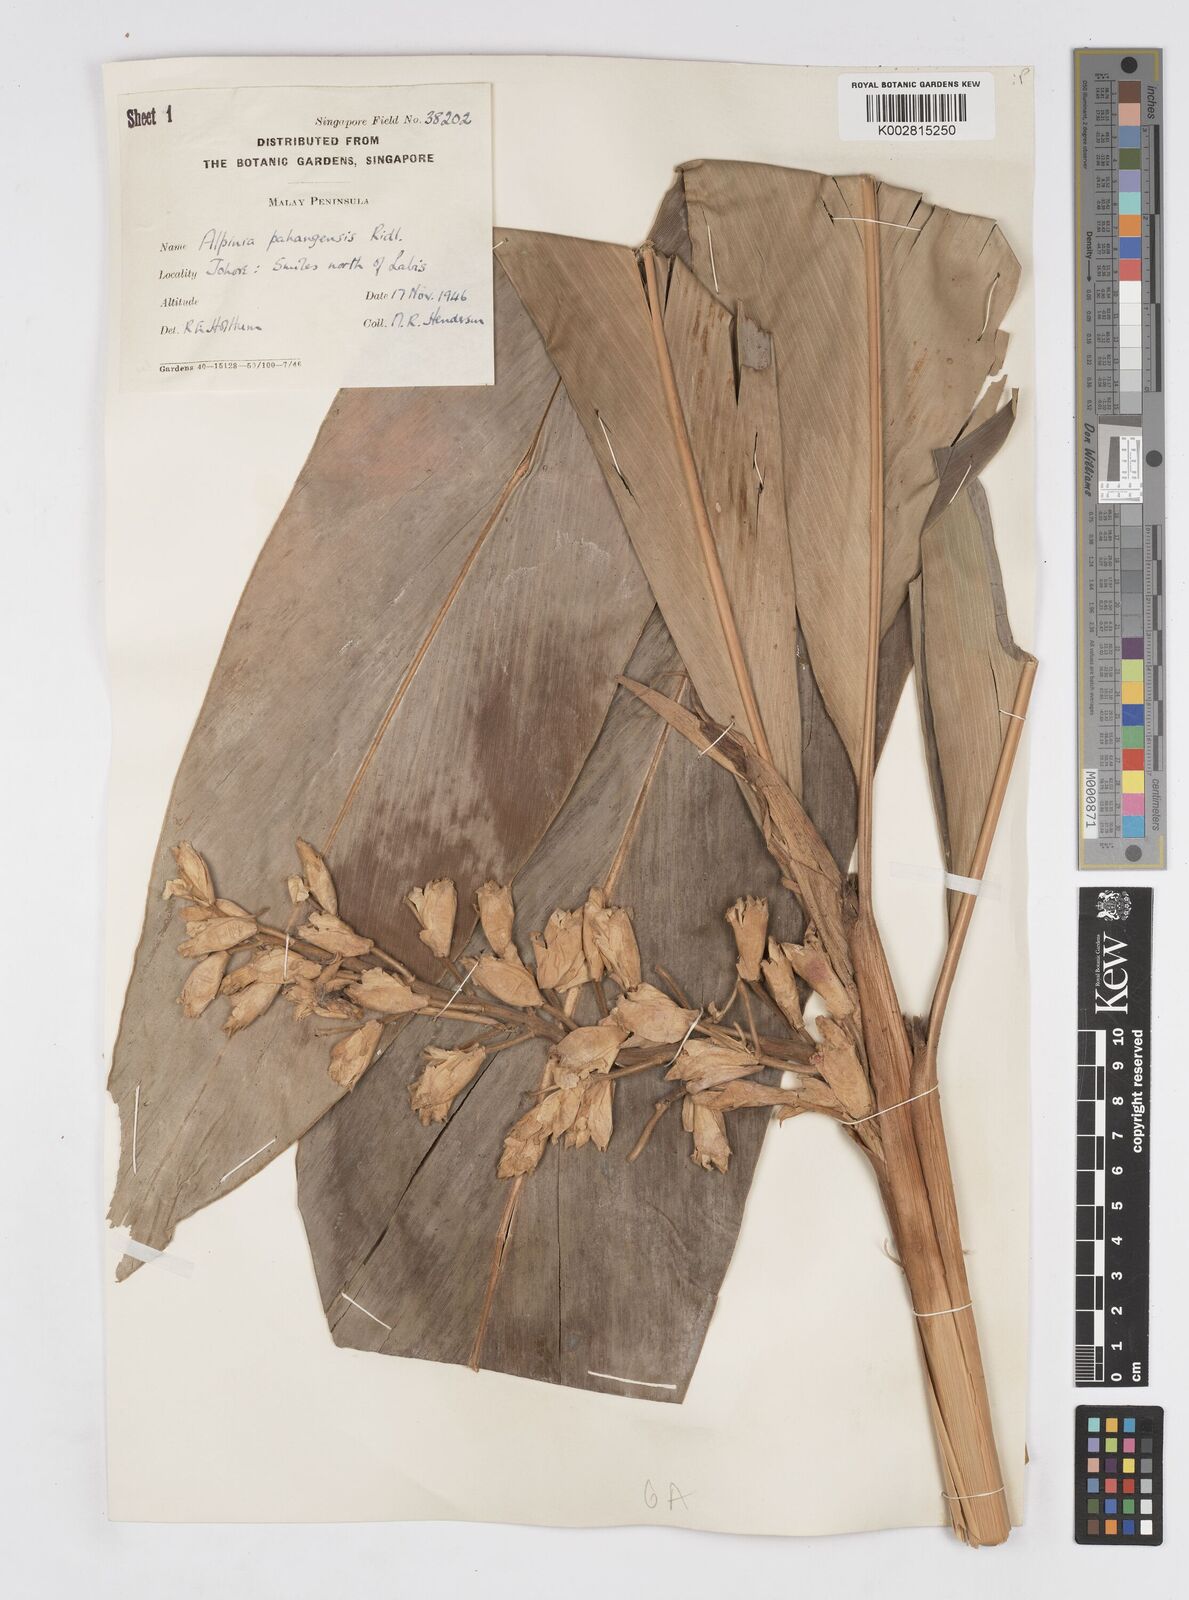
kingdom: Plantae
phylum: Tracheophyta
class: Liliopsida
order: Zingiberales
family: Zingiberaceae
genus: Alpinia
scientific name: Alpinia pahangensis
